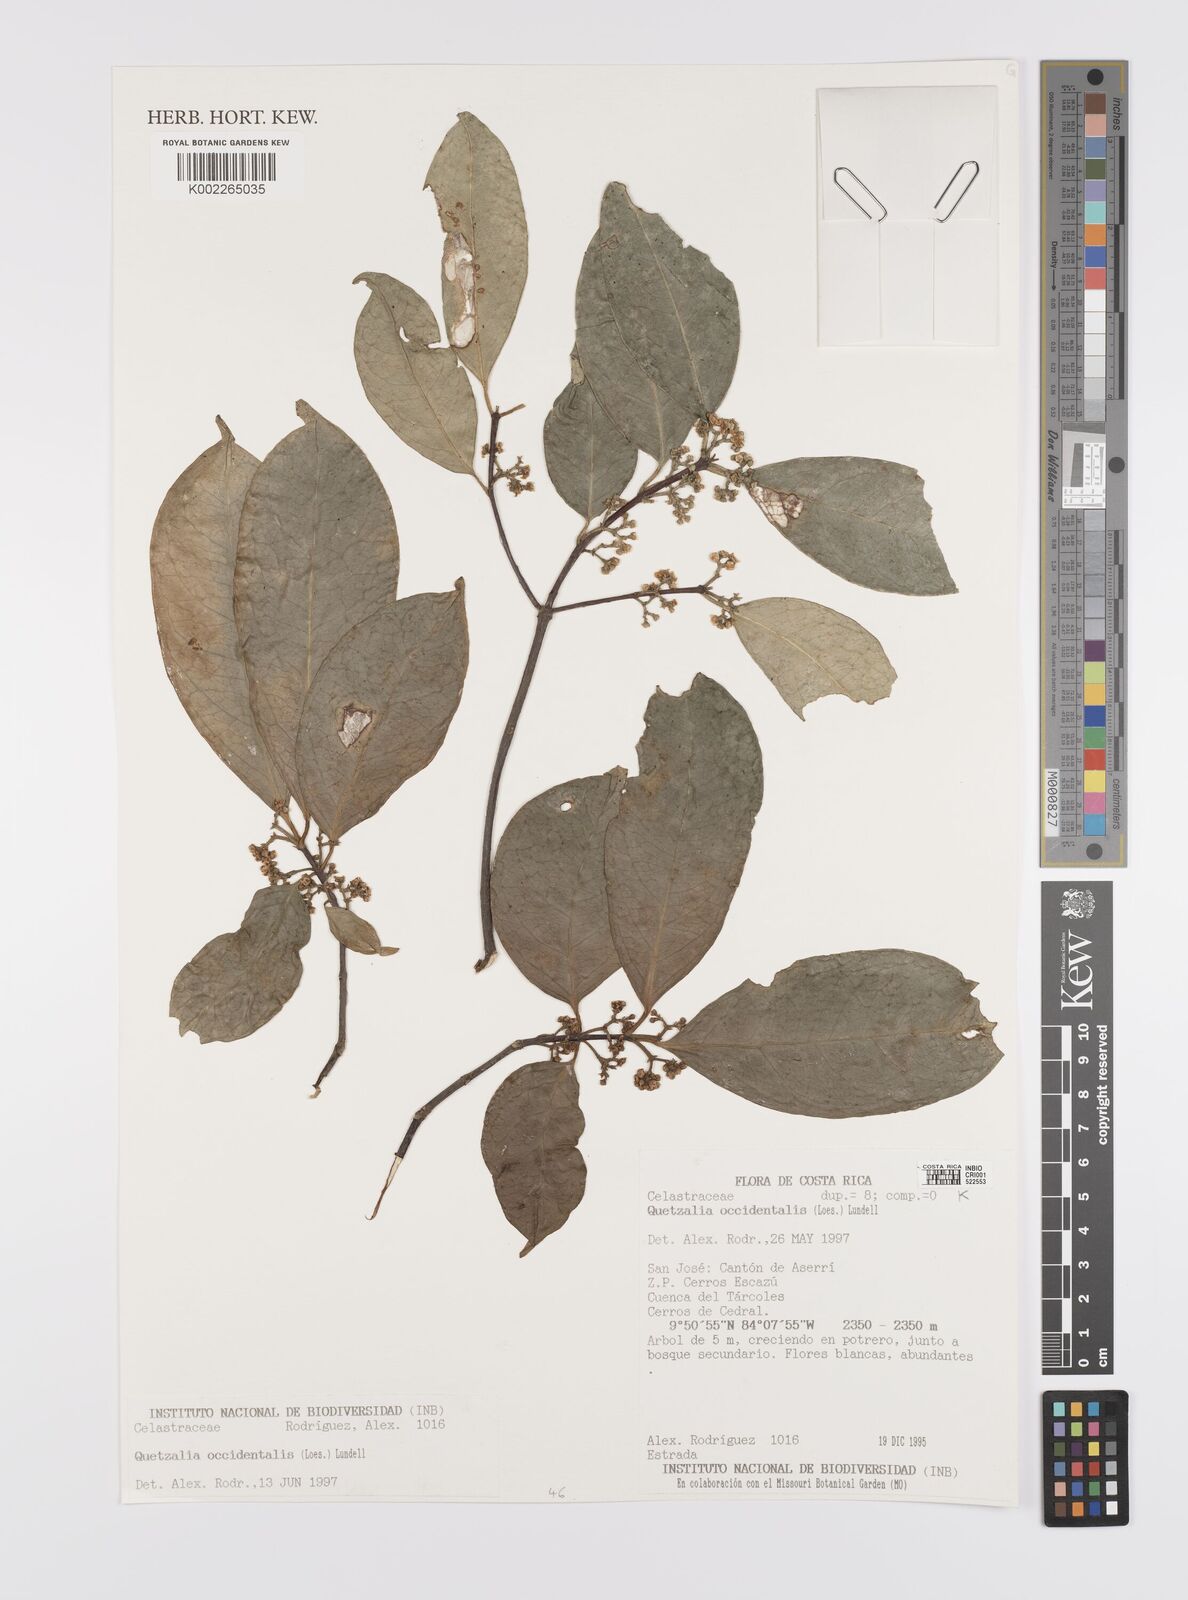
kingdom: Plantae
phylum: Tracheophyta
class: Magnoliopsida
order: Celastrales
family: Celastraceae
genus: Quetzalia
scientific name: Quetzalia occidentalis
